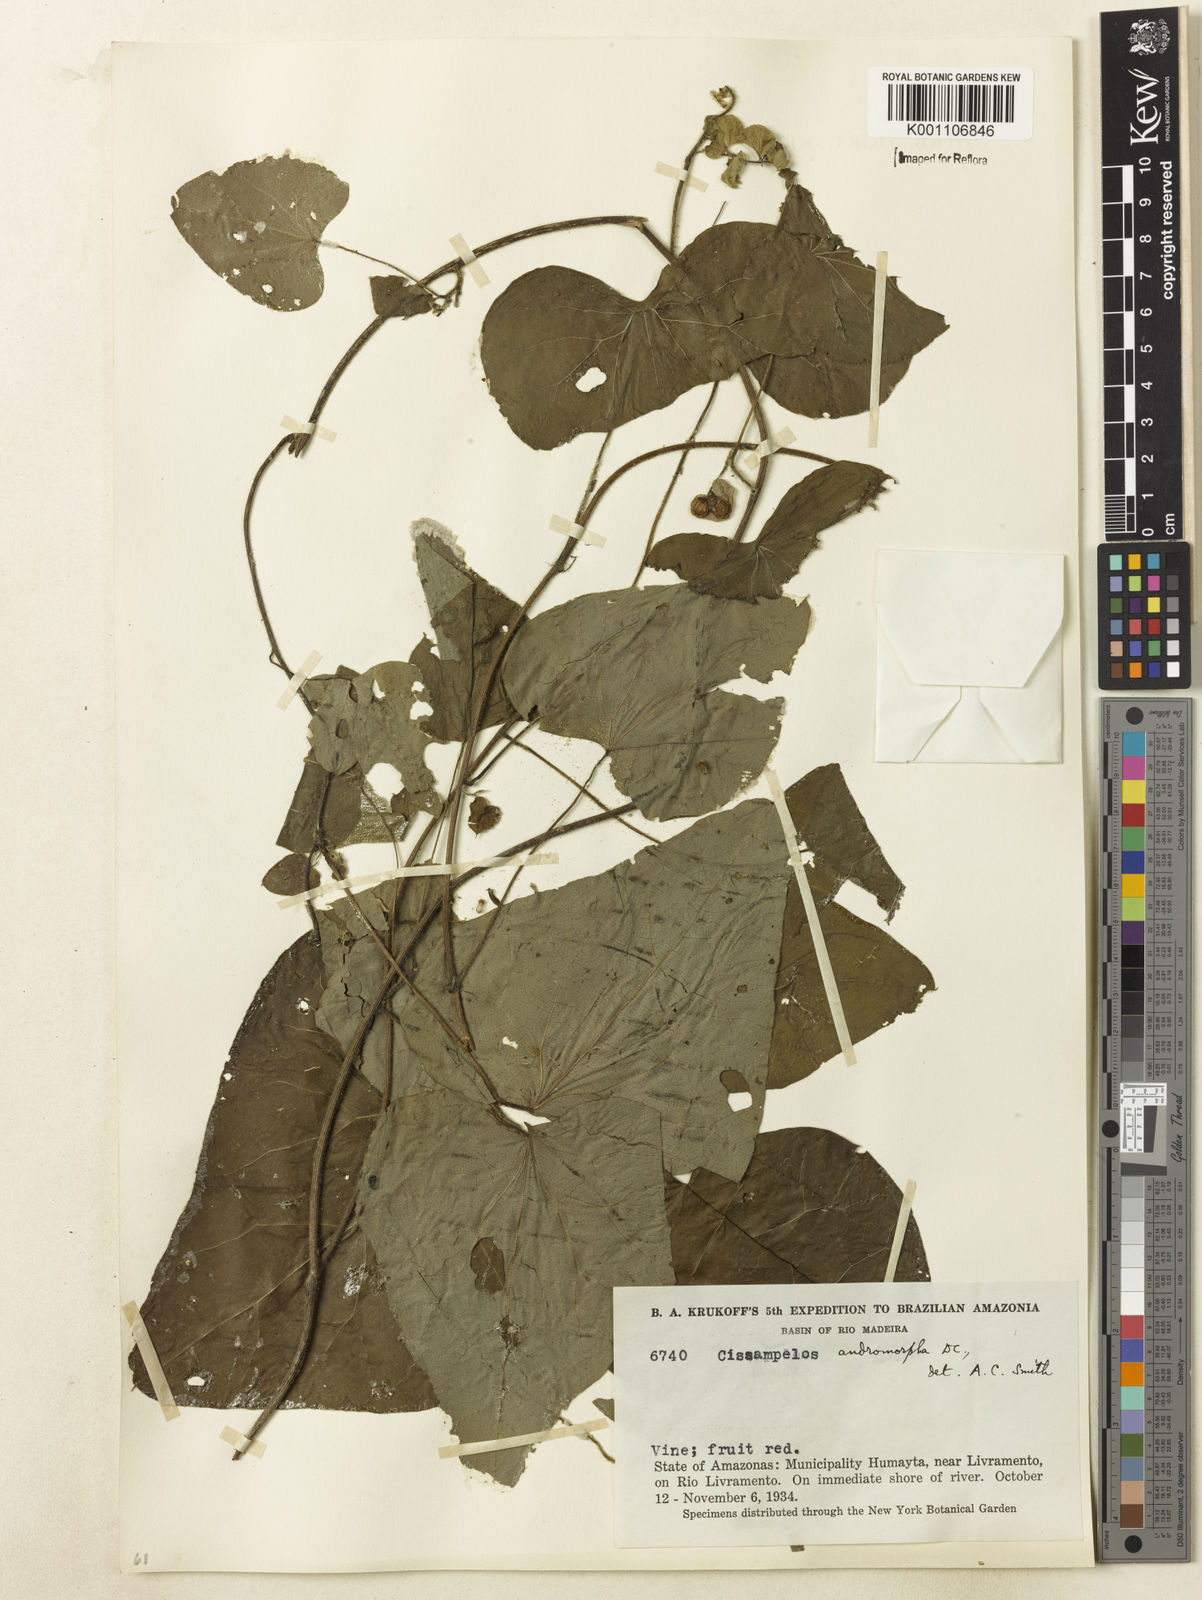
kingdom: Plantae
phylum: Tracheophyta
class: Magnoliopsida
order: Ranunculales
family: Menispermaceae
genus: Cissampelos
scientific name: Cissampelos andromorpha
